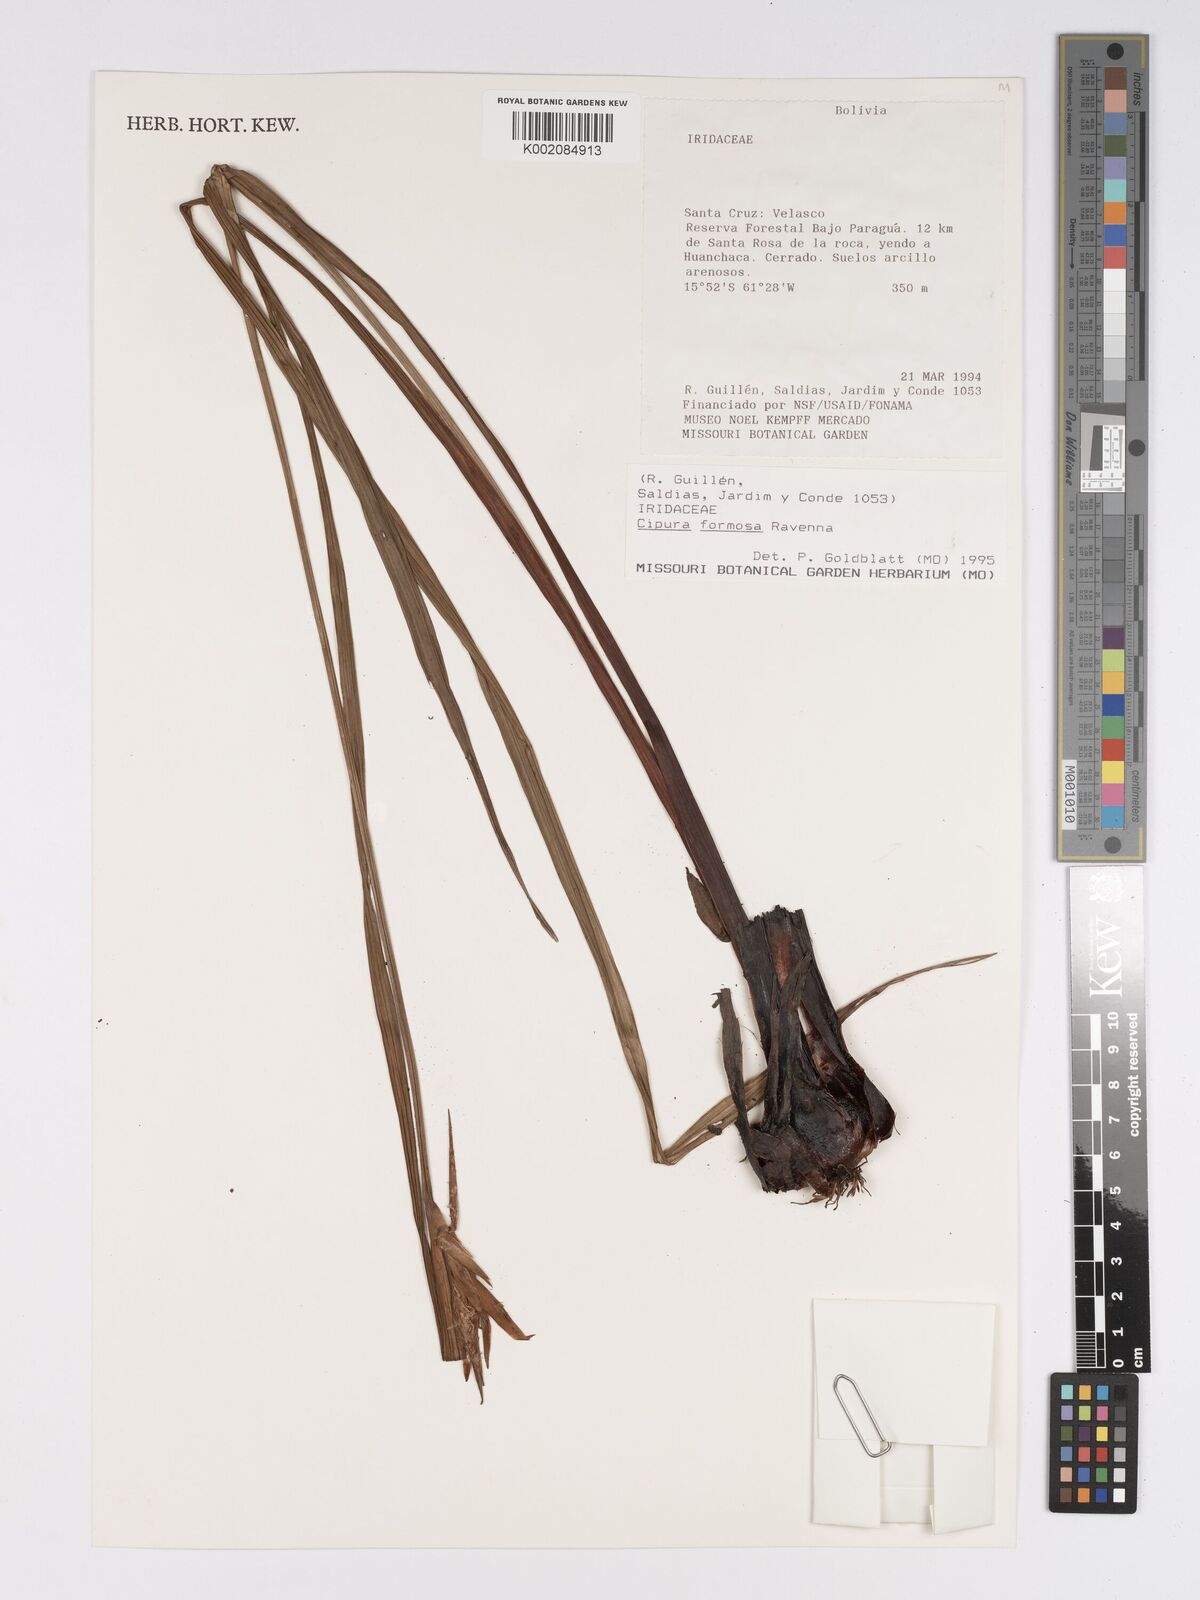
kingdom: Plantae
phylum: Tracheophyta
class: Liliopsida
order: Asparagales
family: Iridaceae
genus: Cipura
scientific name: Cipura paludosa
